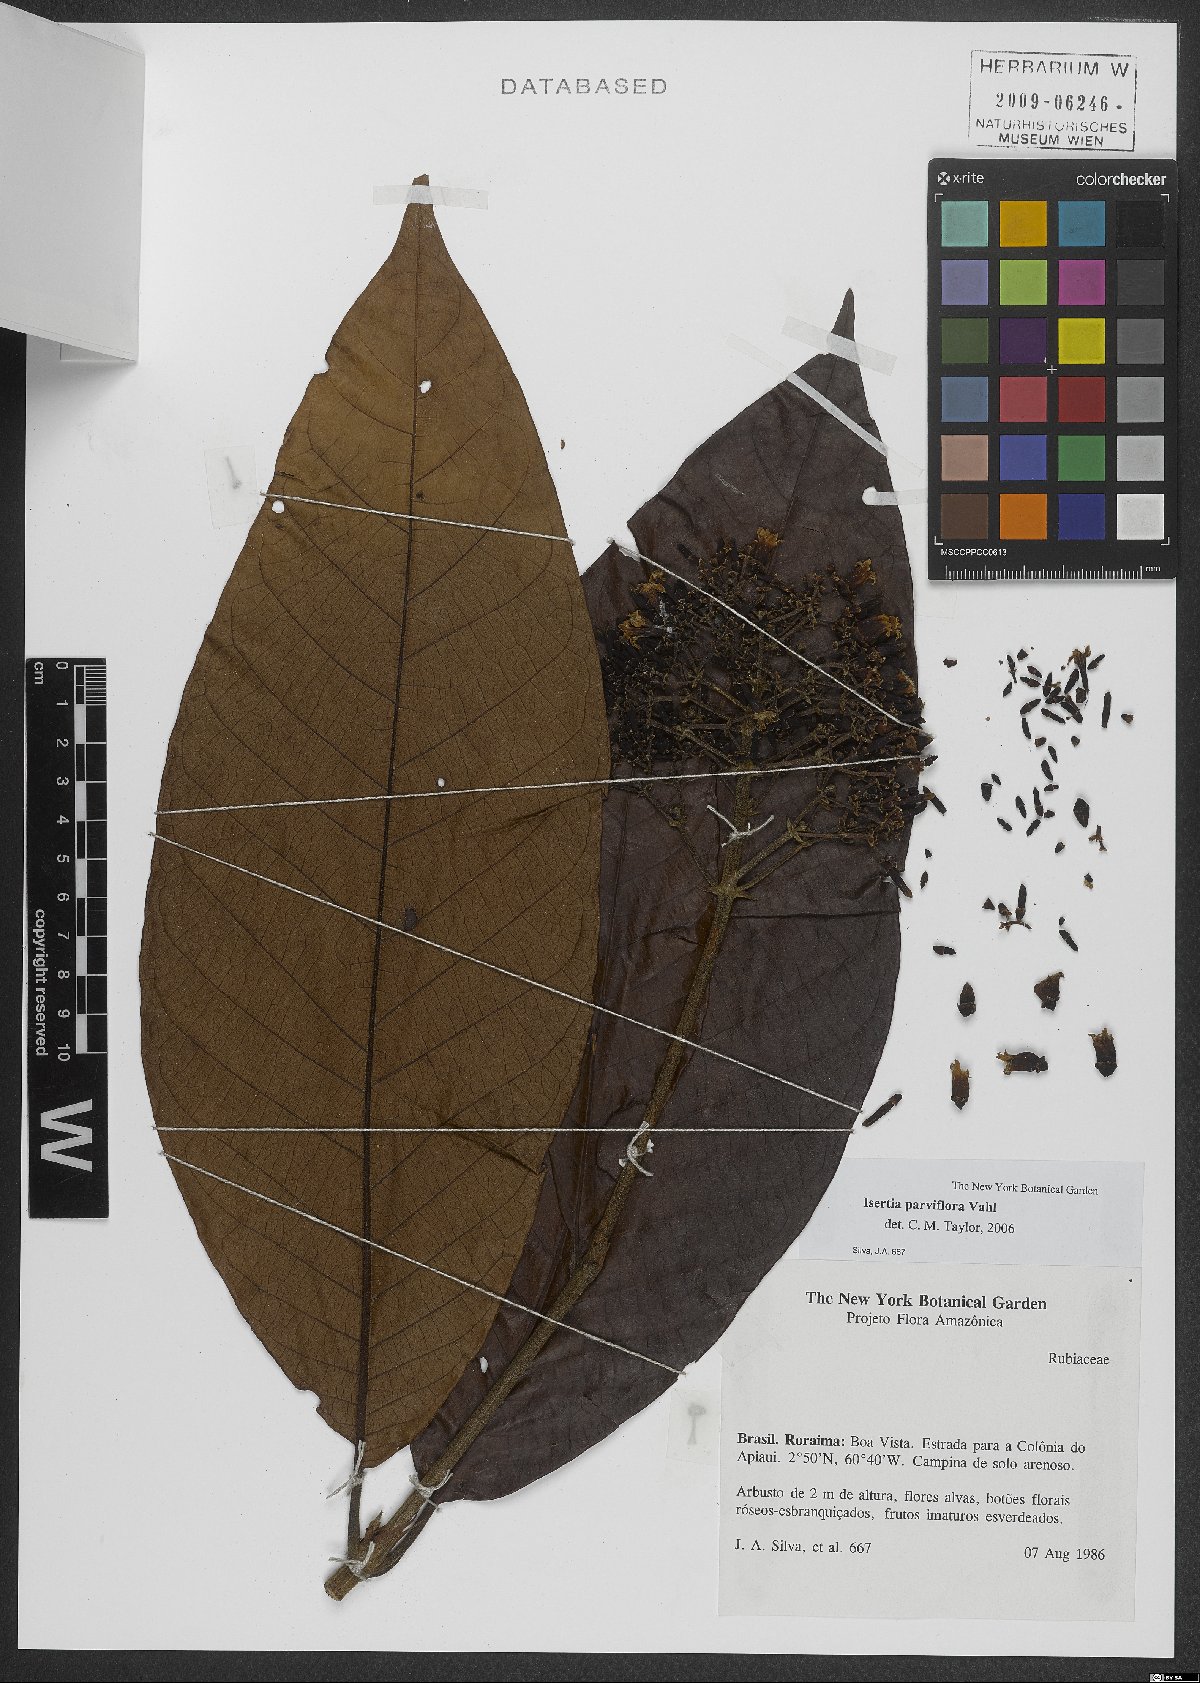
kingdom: Plantae
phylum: Tracheophyta
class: Magnoliopsida
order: Gentianales
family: Rubiaceae
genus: Isertia
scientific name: Isertia parviflora
